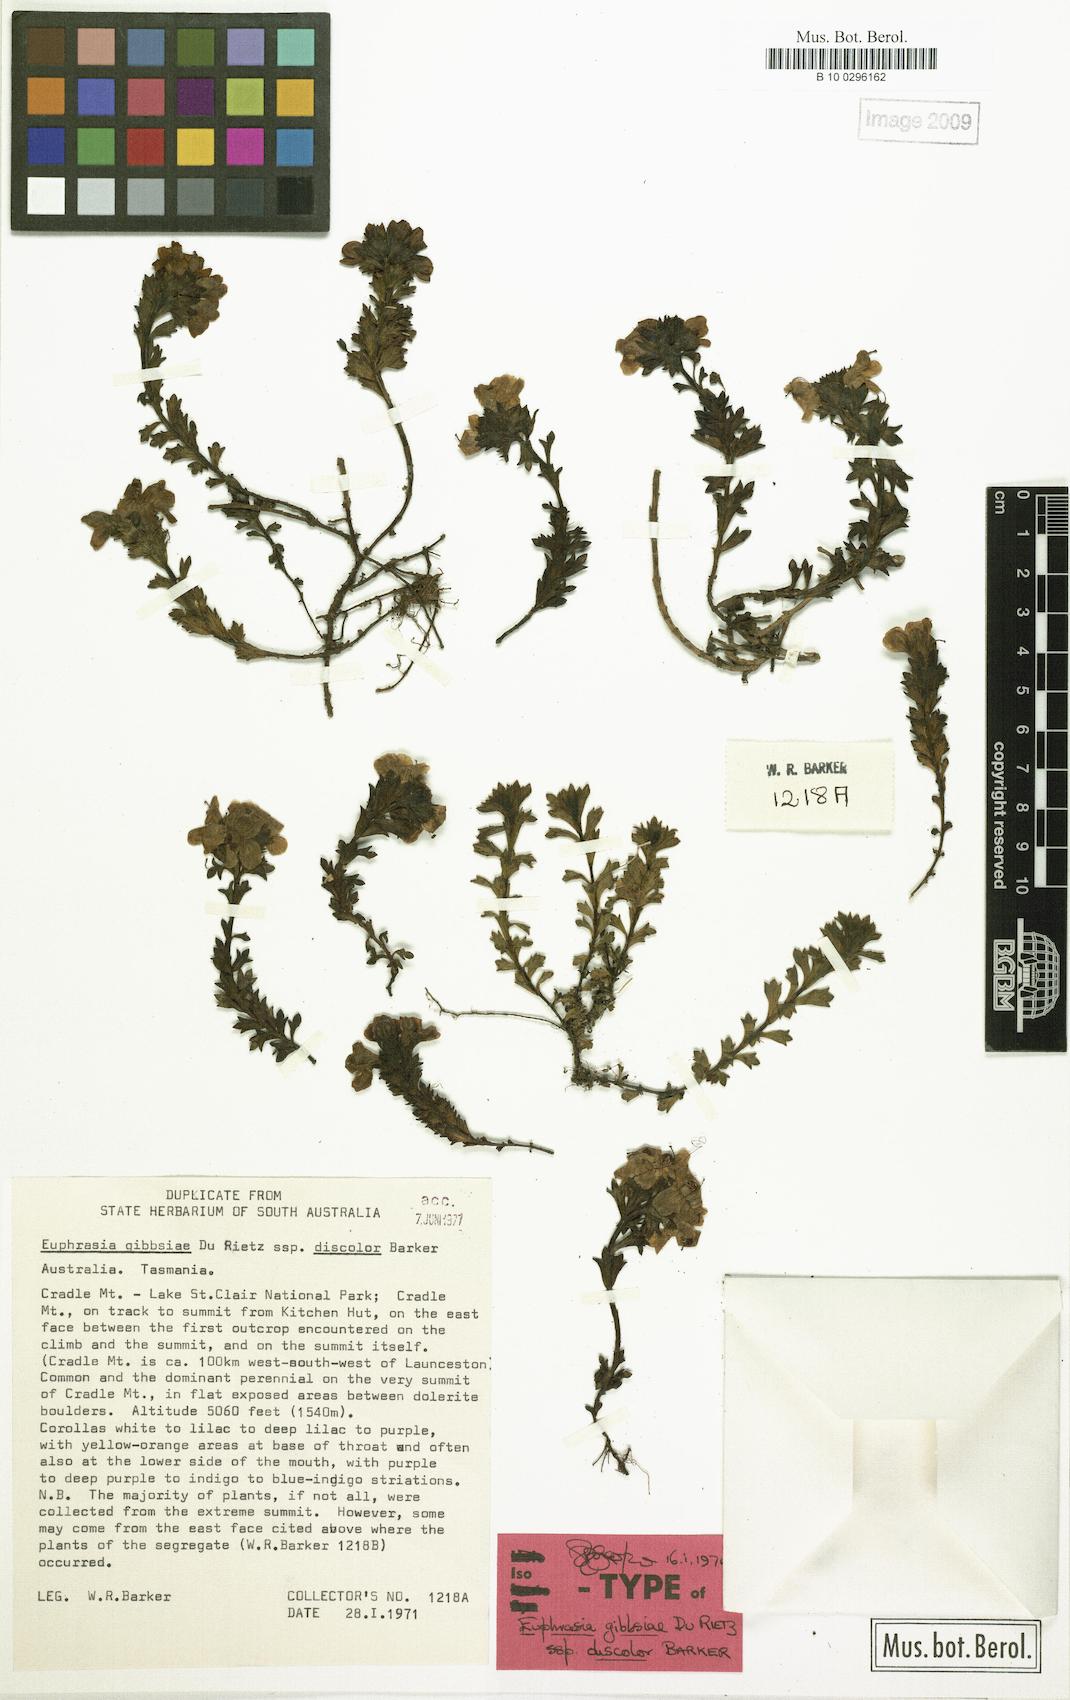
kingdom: Plantae
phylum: Tracheophyta
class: Magnoliopsida
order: Lamiales
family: Orobanchaceae
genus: Euphrasia
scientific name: Euphrasia gibbsiae
